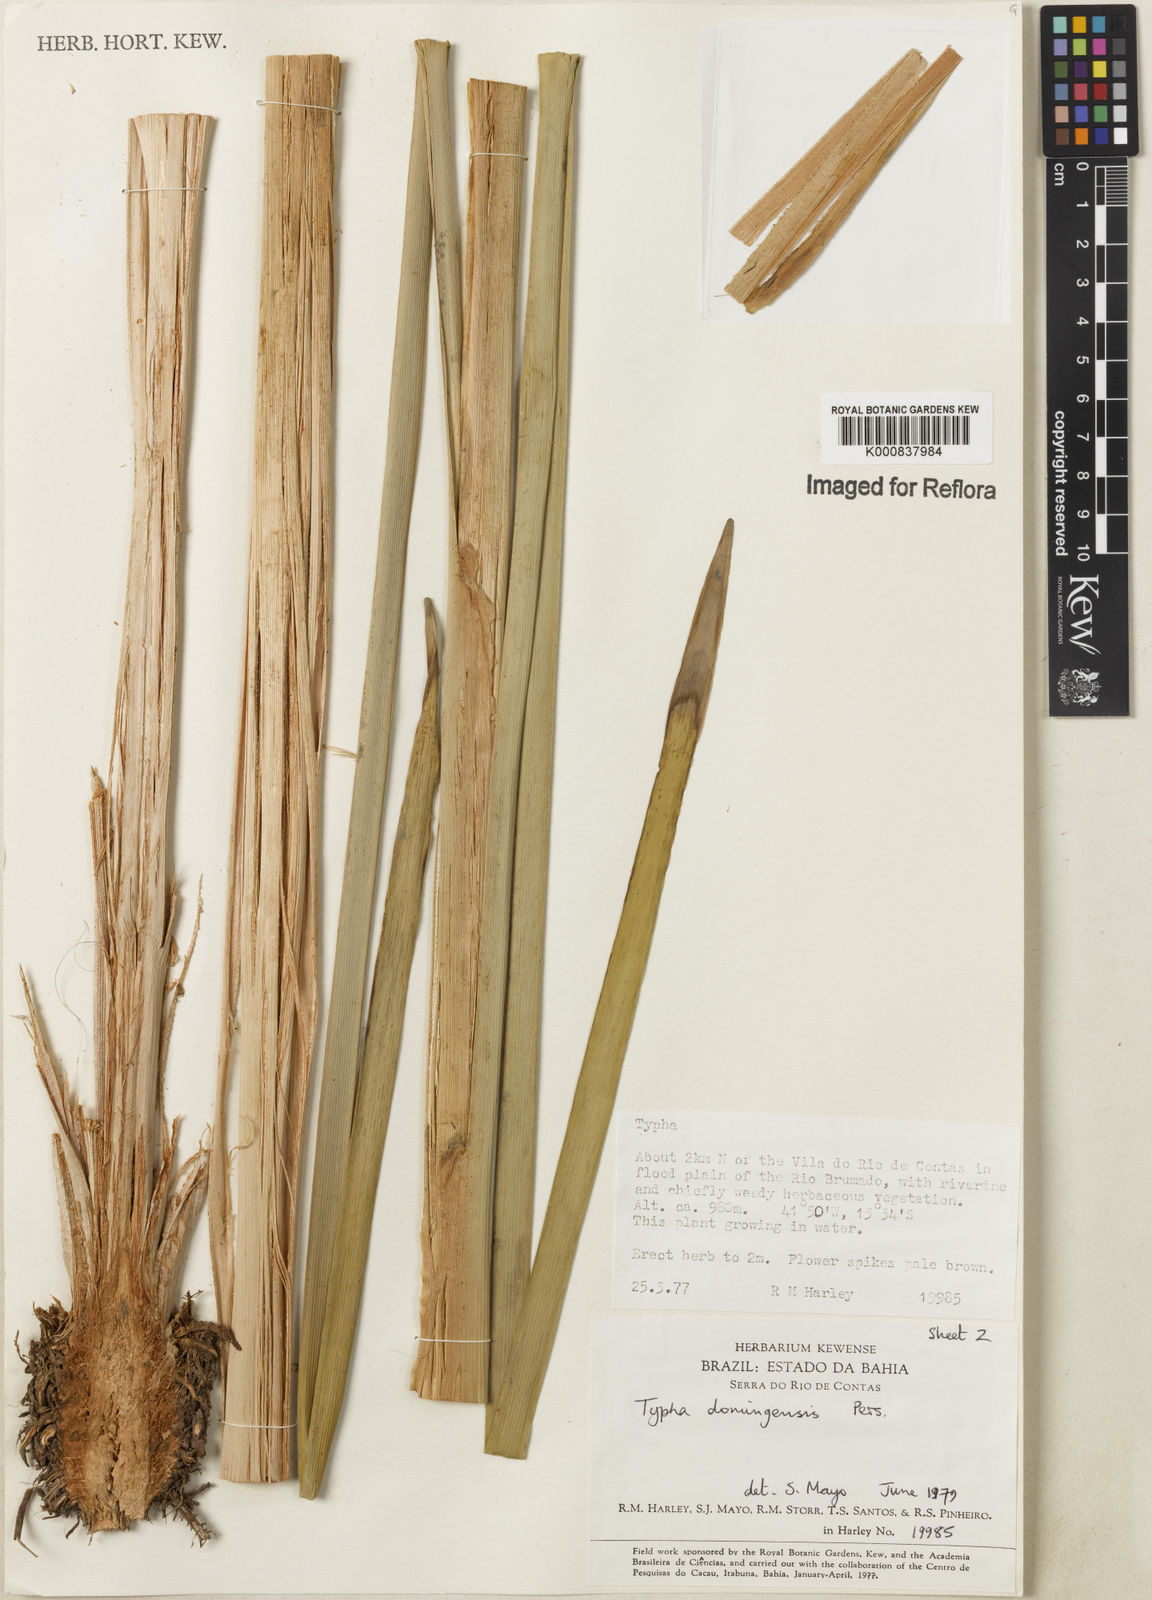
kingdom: Plantae
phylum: Tracheophyta
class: Liliopsida
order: Poales
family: Typhaceae
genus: Typha
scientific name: Typha
